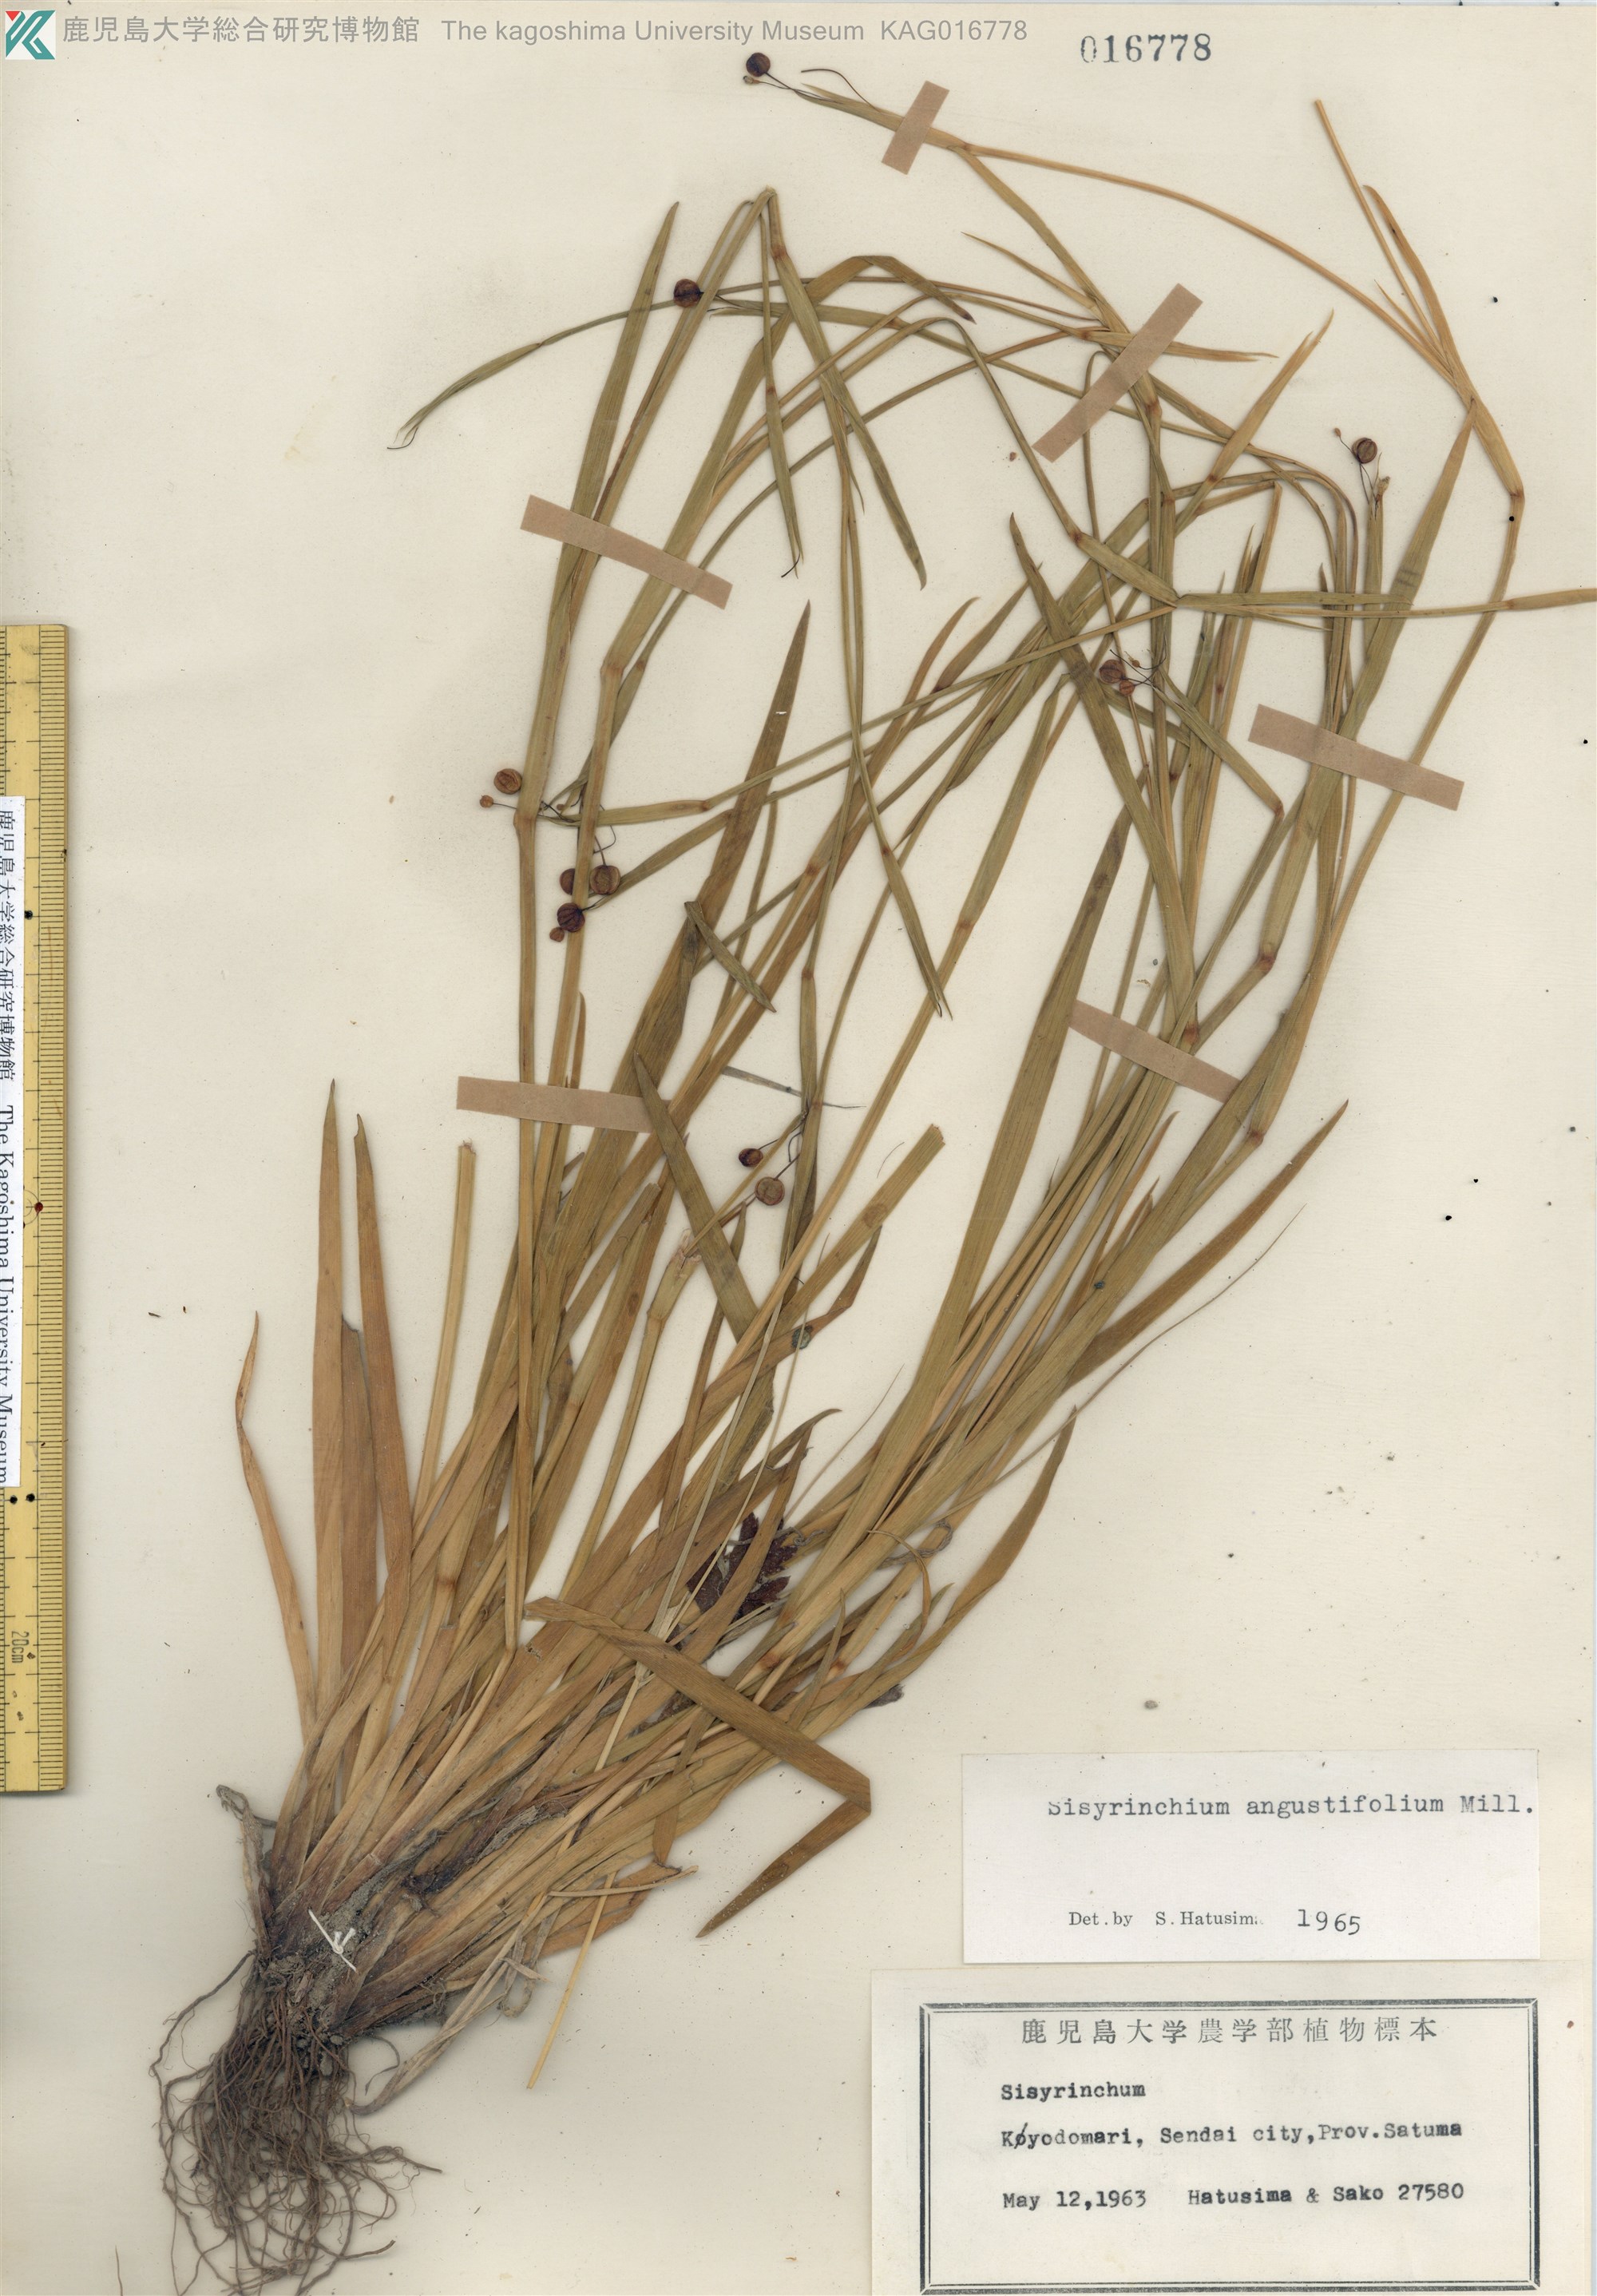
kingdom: Plantae
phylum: Tracheophyta
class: Liliopsida
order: Asparagales
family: Iridaceae
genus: Sisyrinchium
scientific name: Sisyrinchium micranthum
